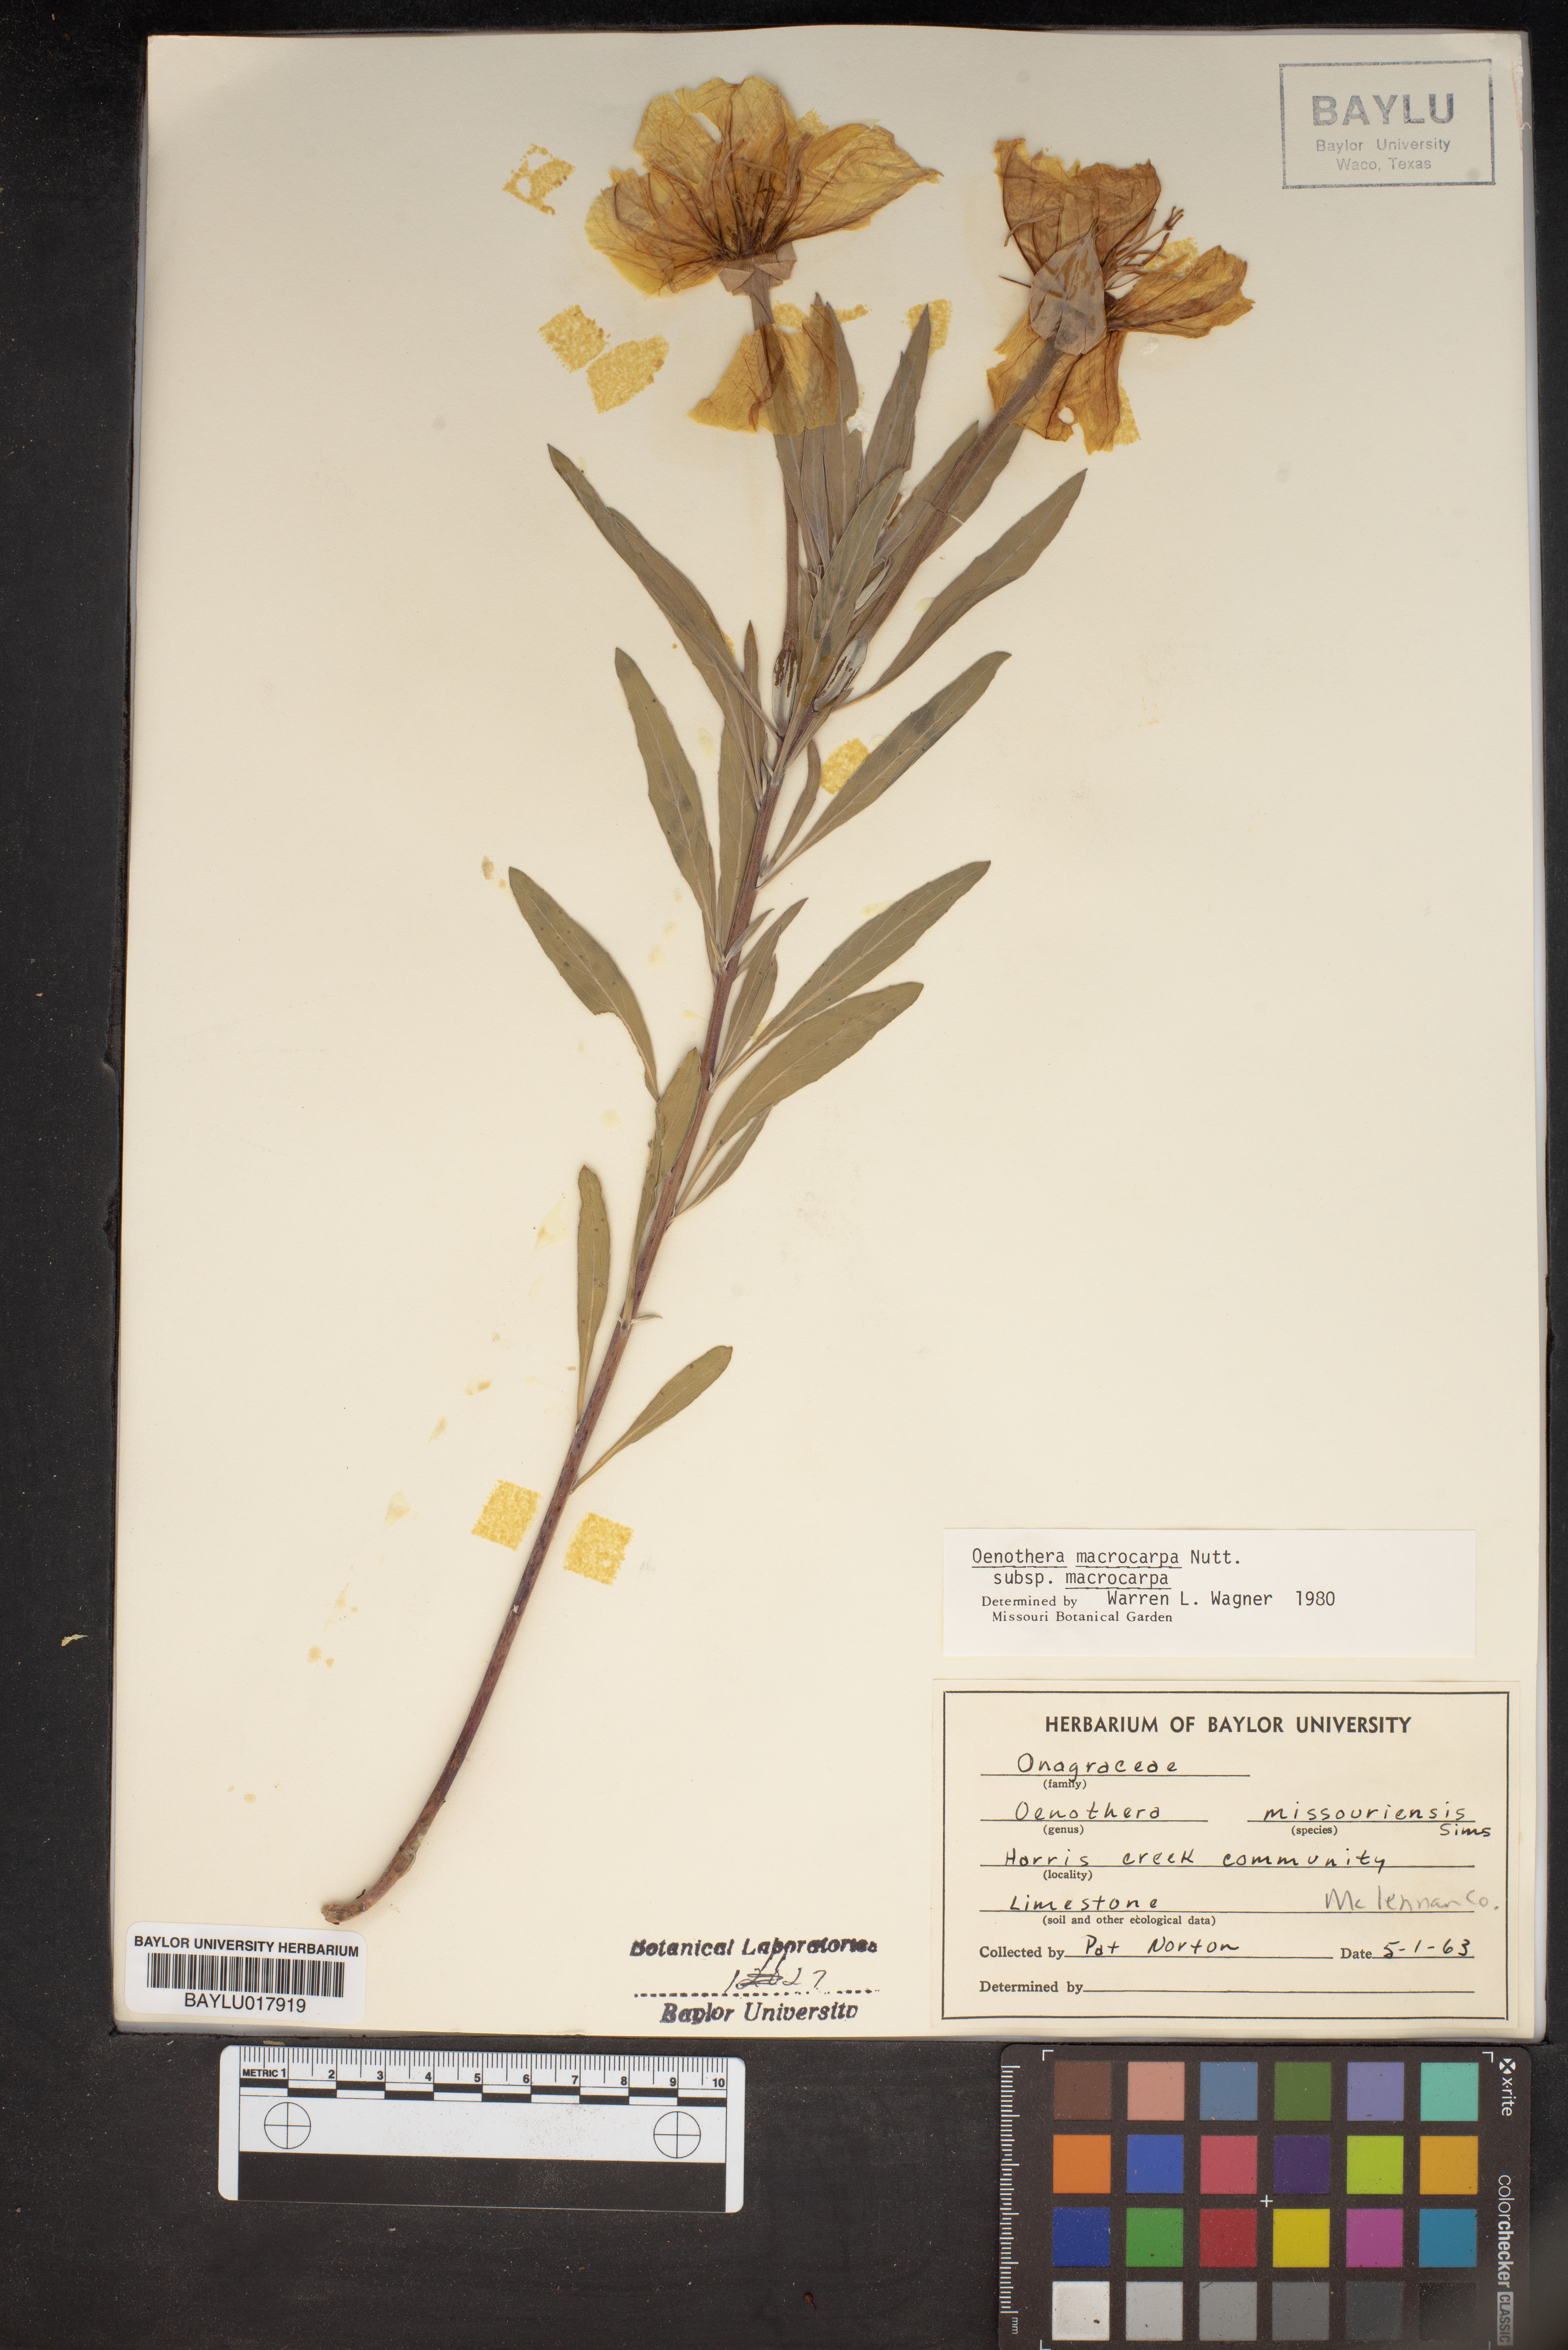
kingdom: Plantae
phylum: Tracheophyta
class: Magnoliopsida
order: Myrtales
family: Onagraceae
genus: Oenothera
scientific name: Oenothera macrocarpa
